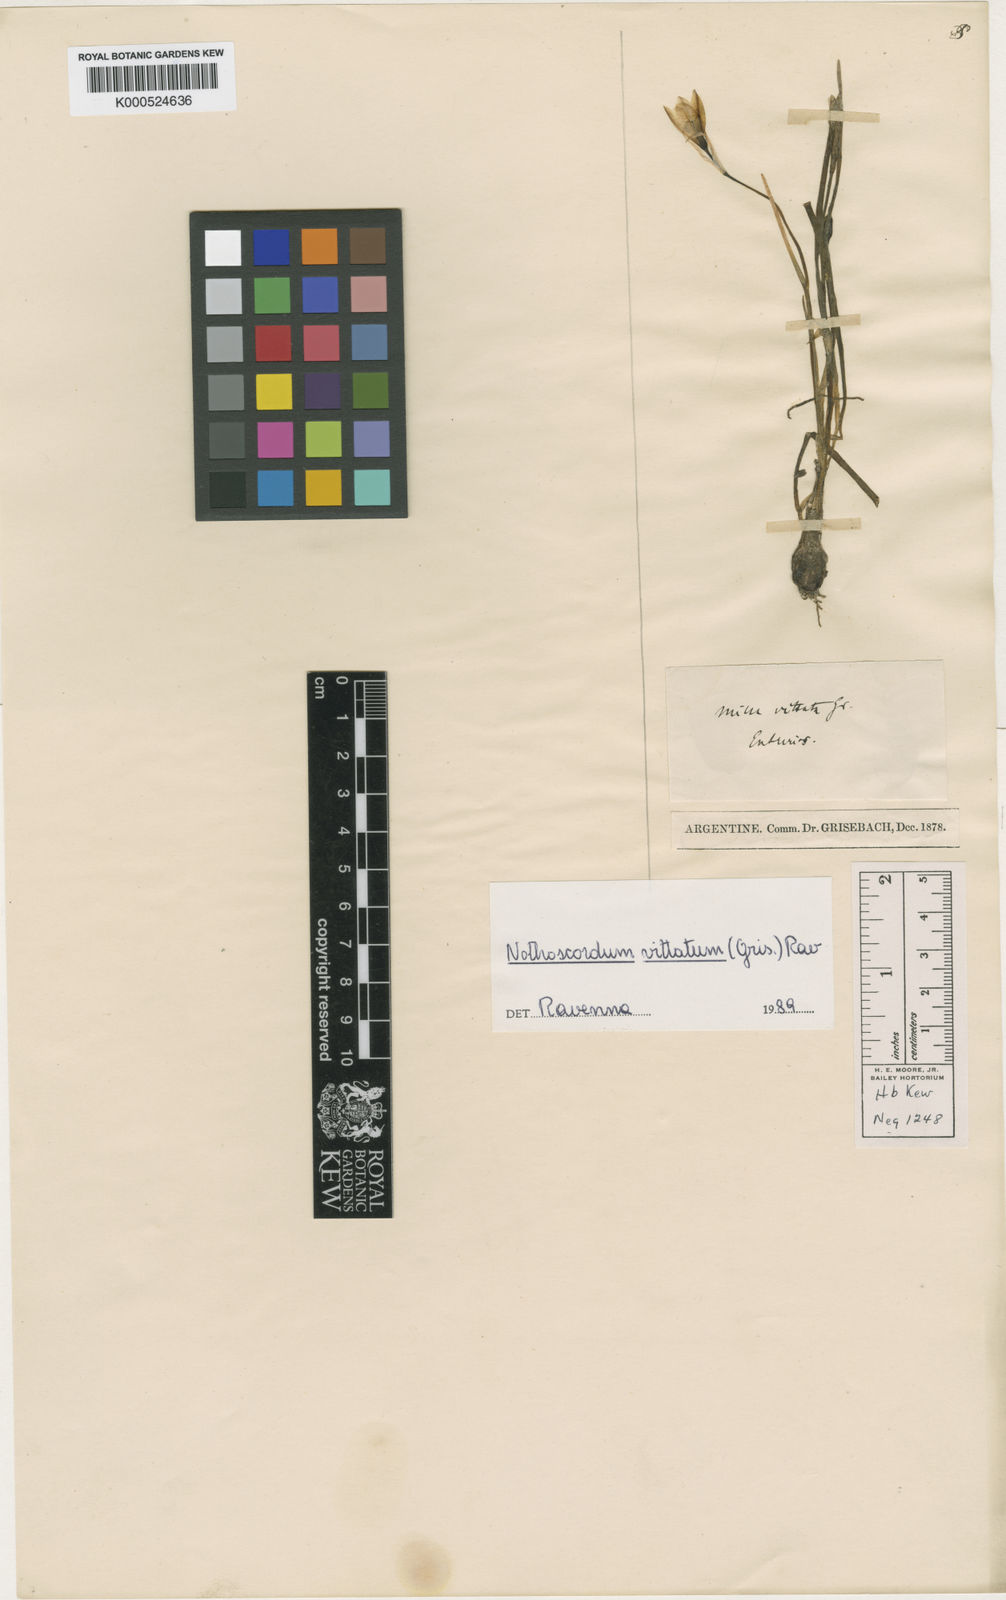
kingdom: Plantae
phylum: Tracheophyta
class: Liliopsida
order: Asparagales
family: Amaryllidaceae
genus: Nothoscordum
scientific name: Nothoscordum vittatum
